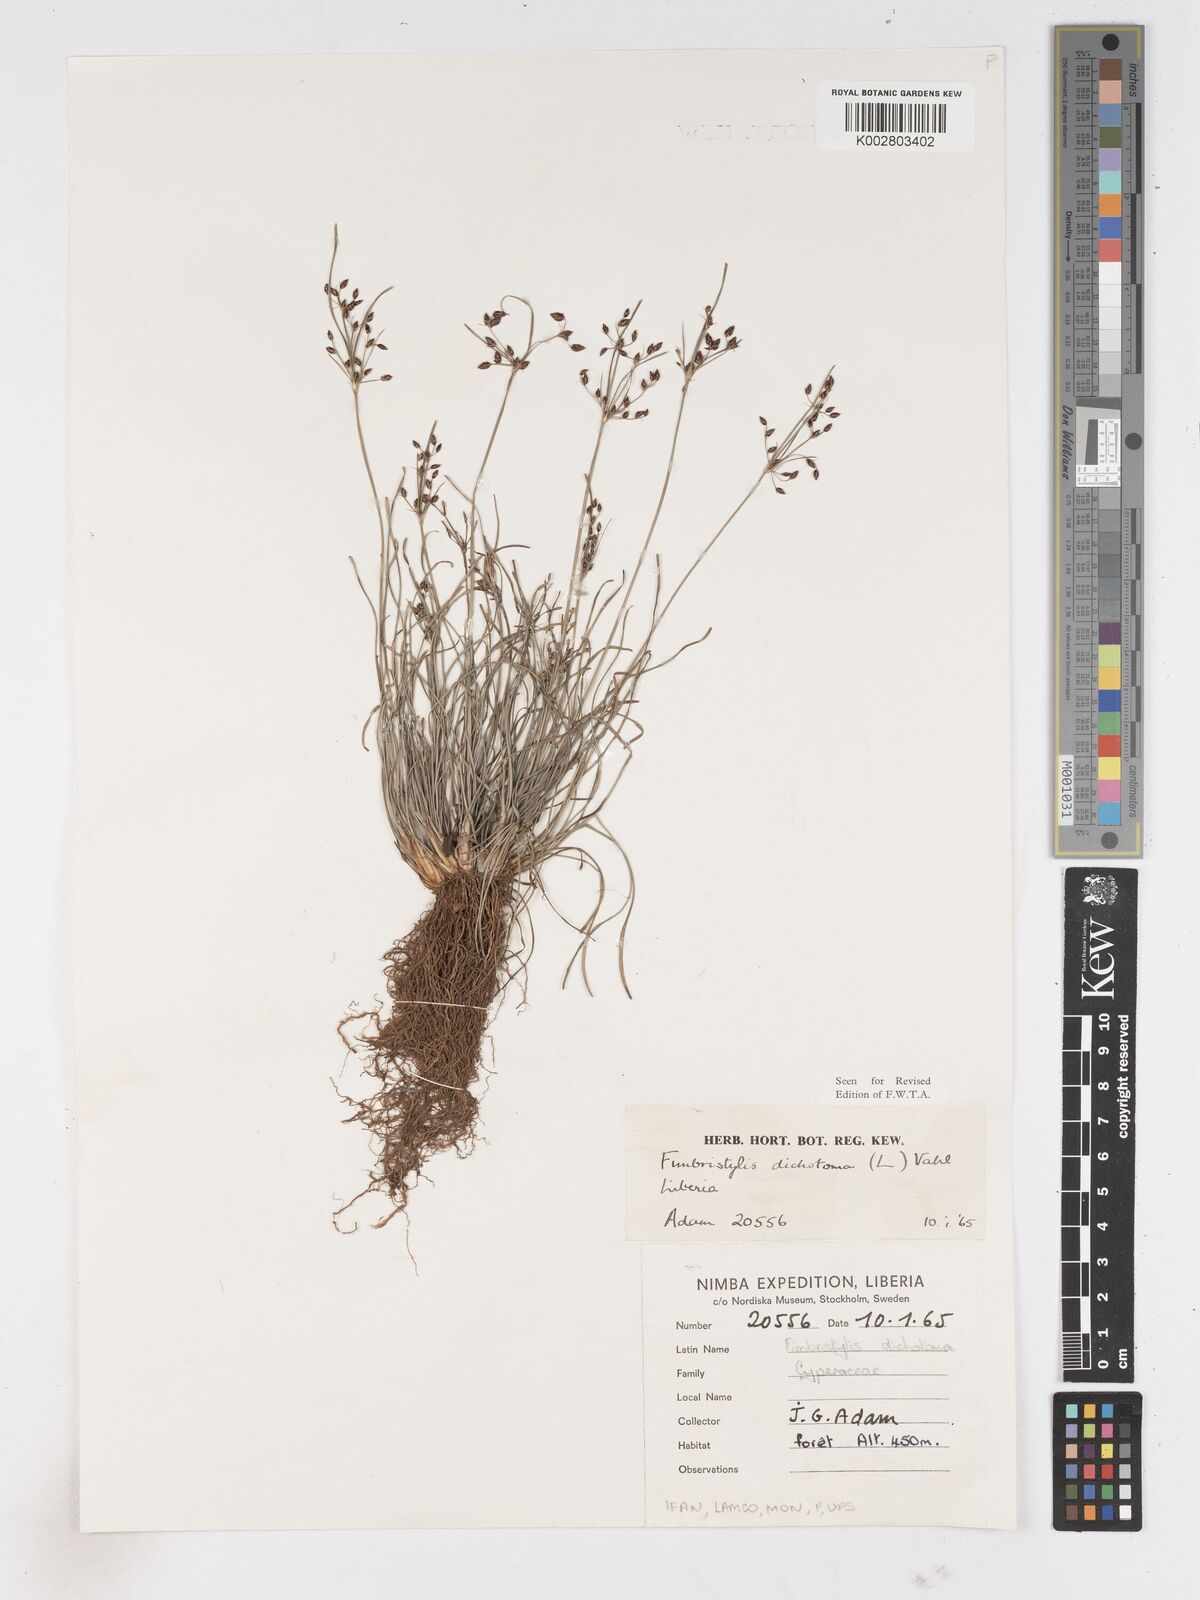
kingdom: Plantae
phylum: Tracheophyta
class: Liliopsida
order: Poales
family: Cyperaceae
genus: Fimbristylis
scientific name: Fimbristylis dichotoma
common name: Forked fimbry
